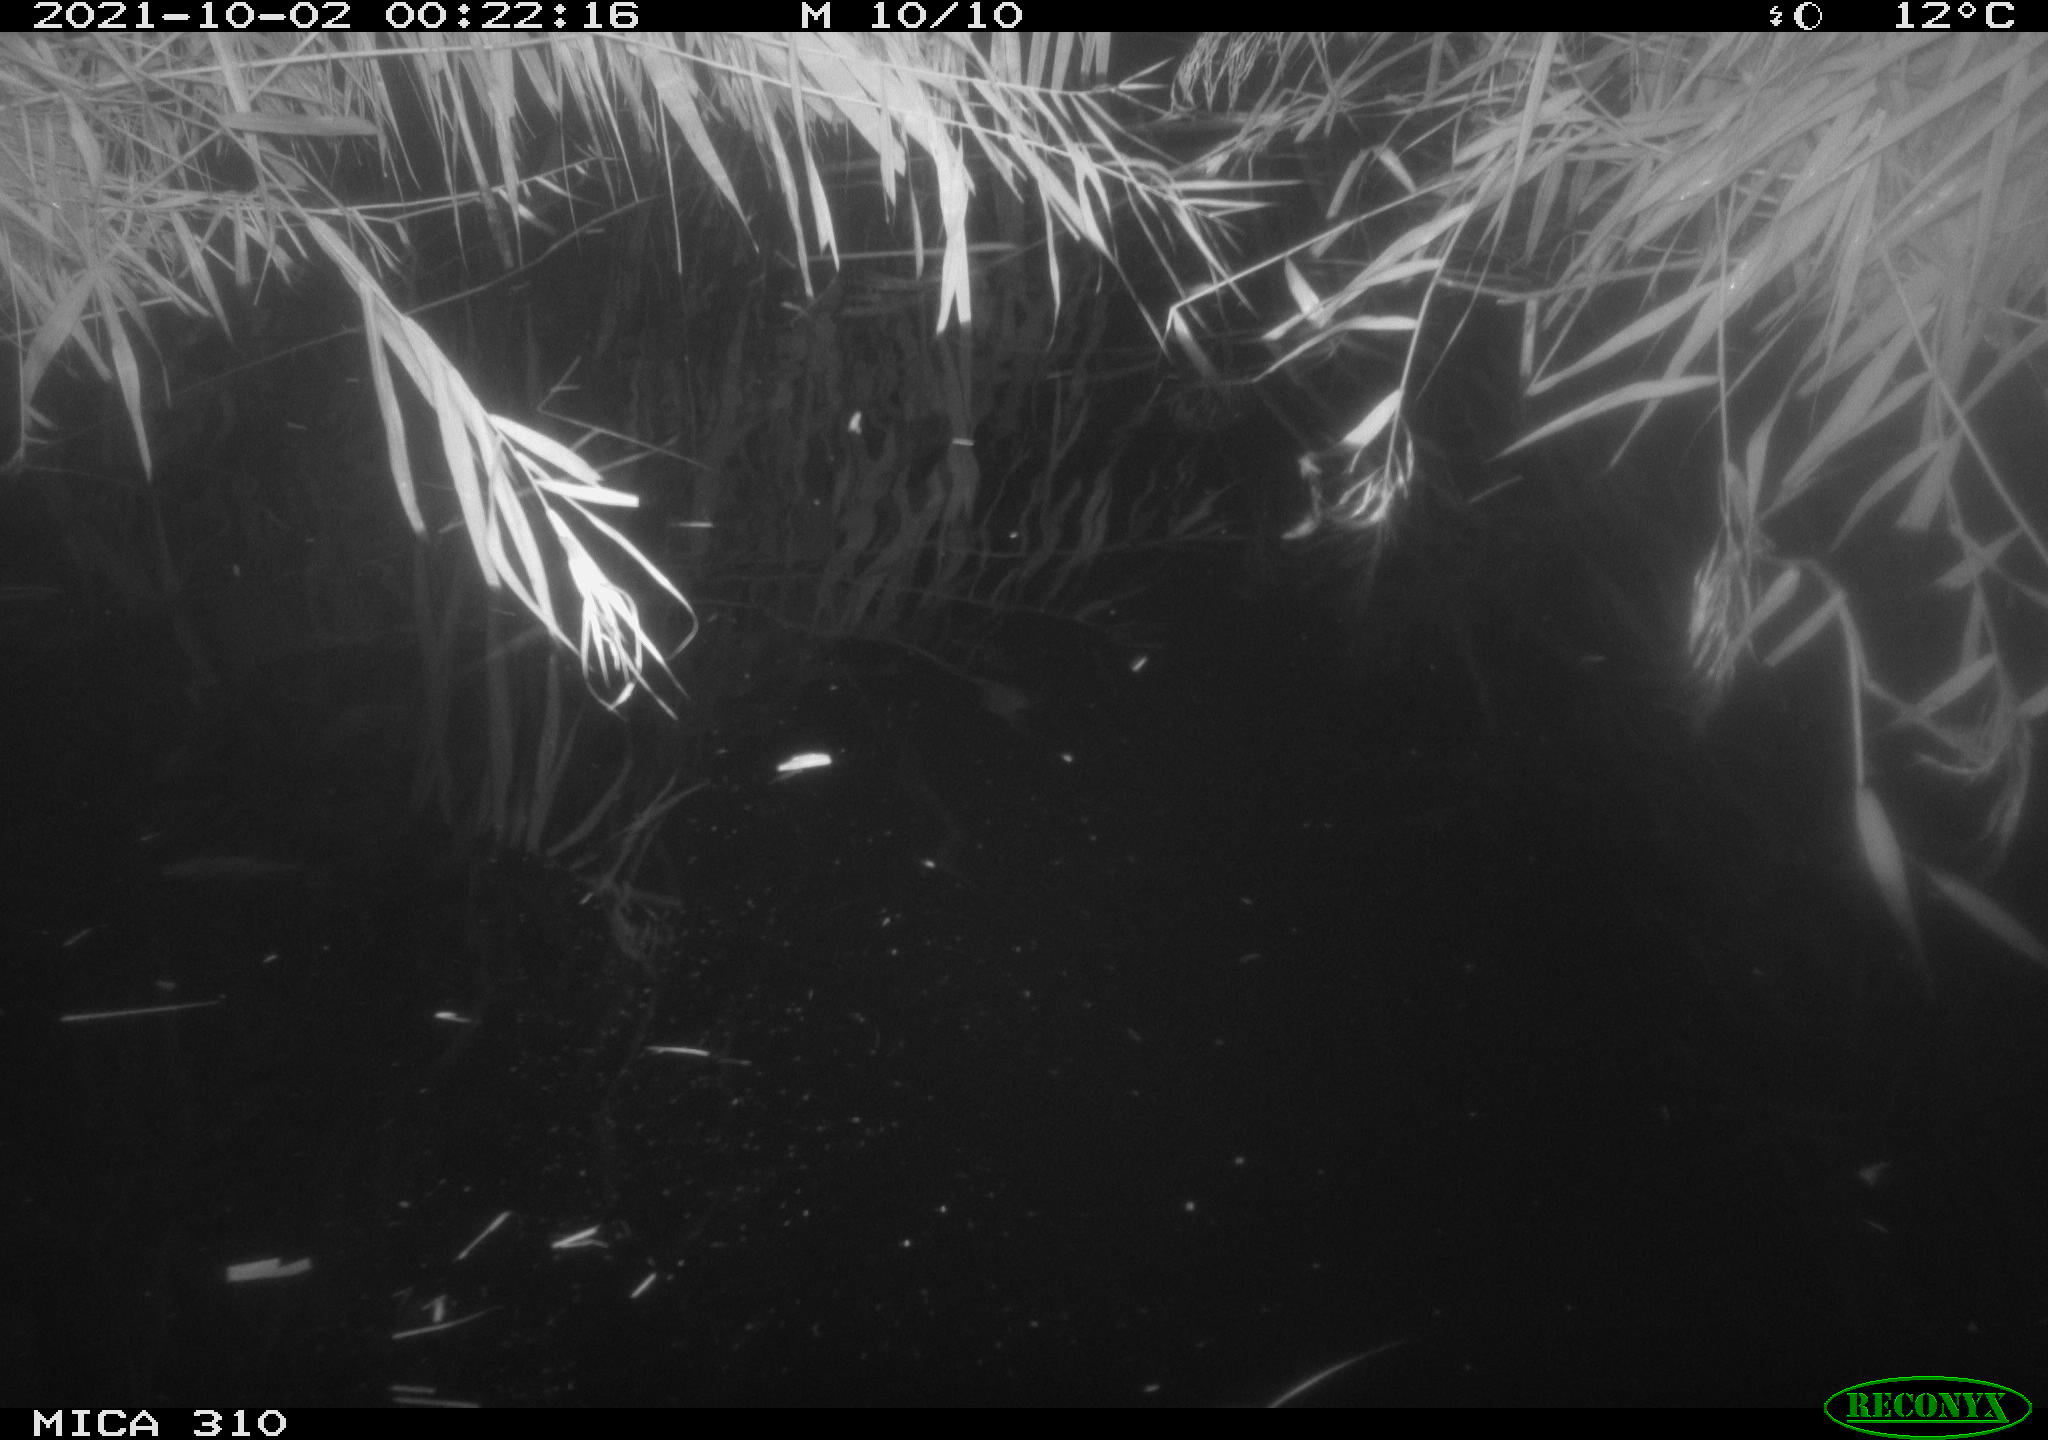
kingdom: Animalia
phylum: Chordata
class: Mammalia
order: Rodentia
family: Cricetidae
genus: Ondatra
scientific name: Ondatra zibethicus
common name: Muskrat
